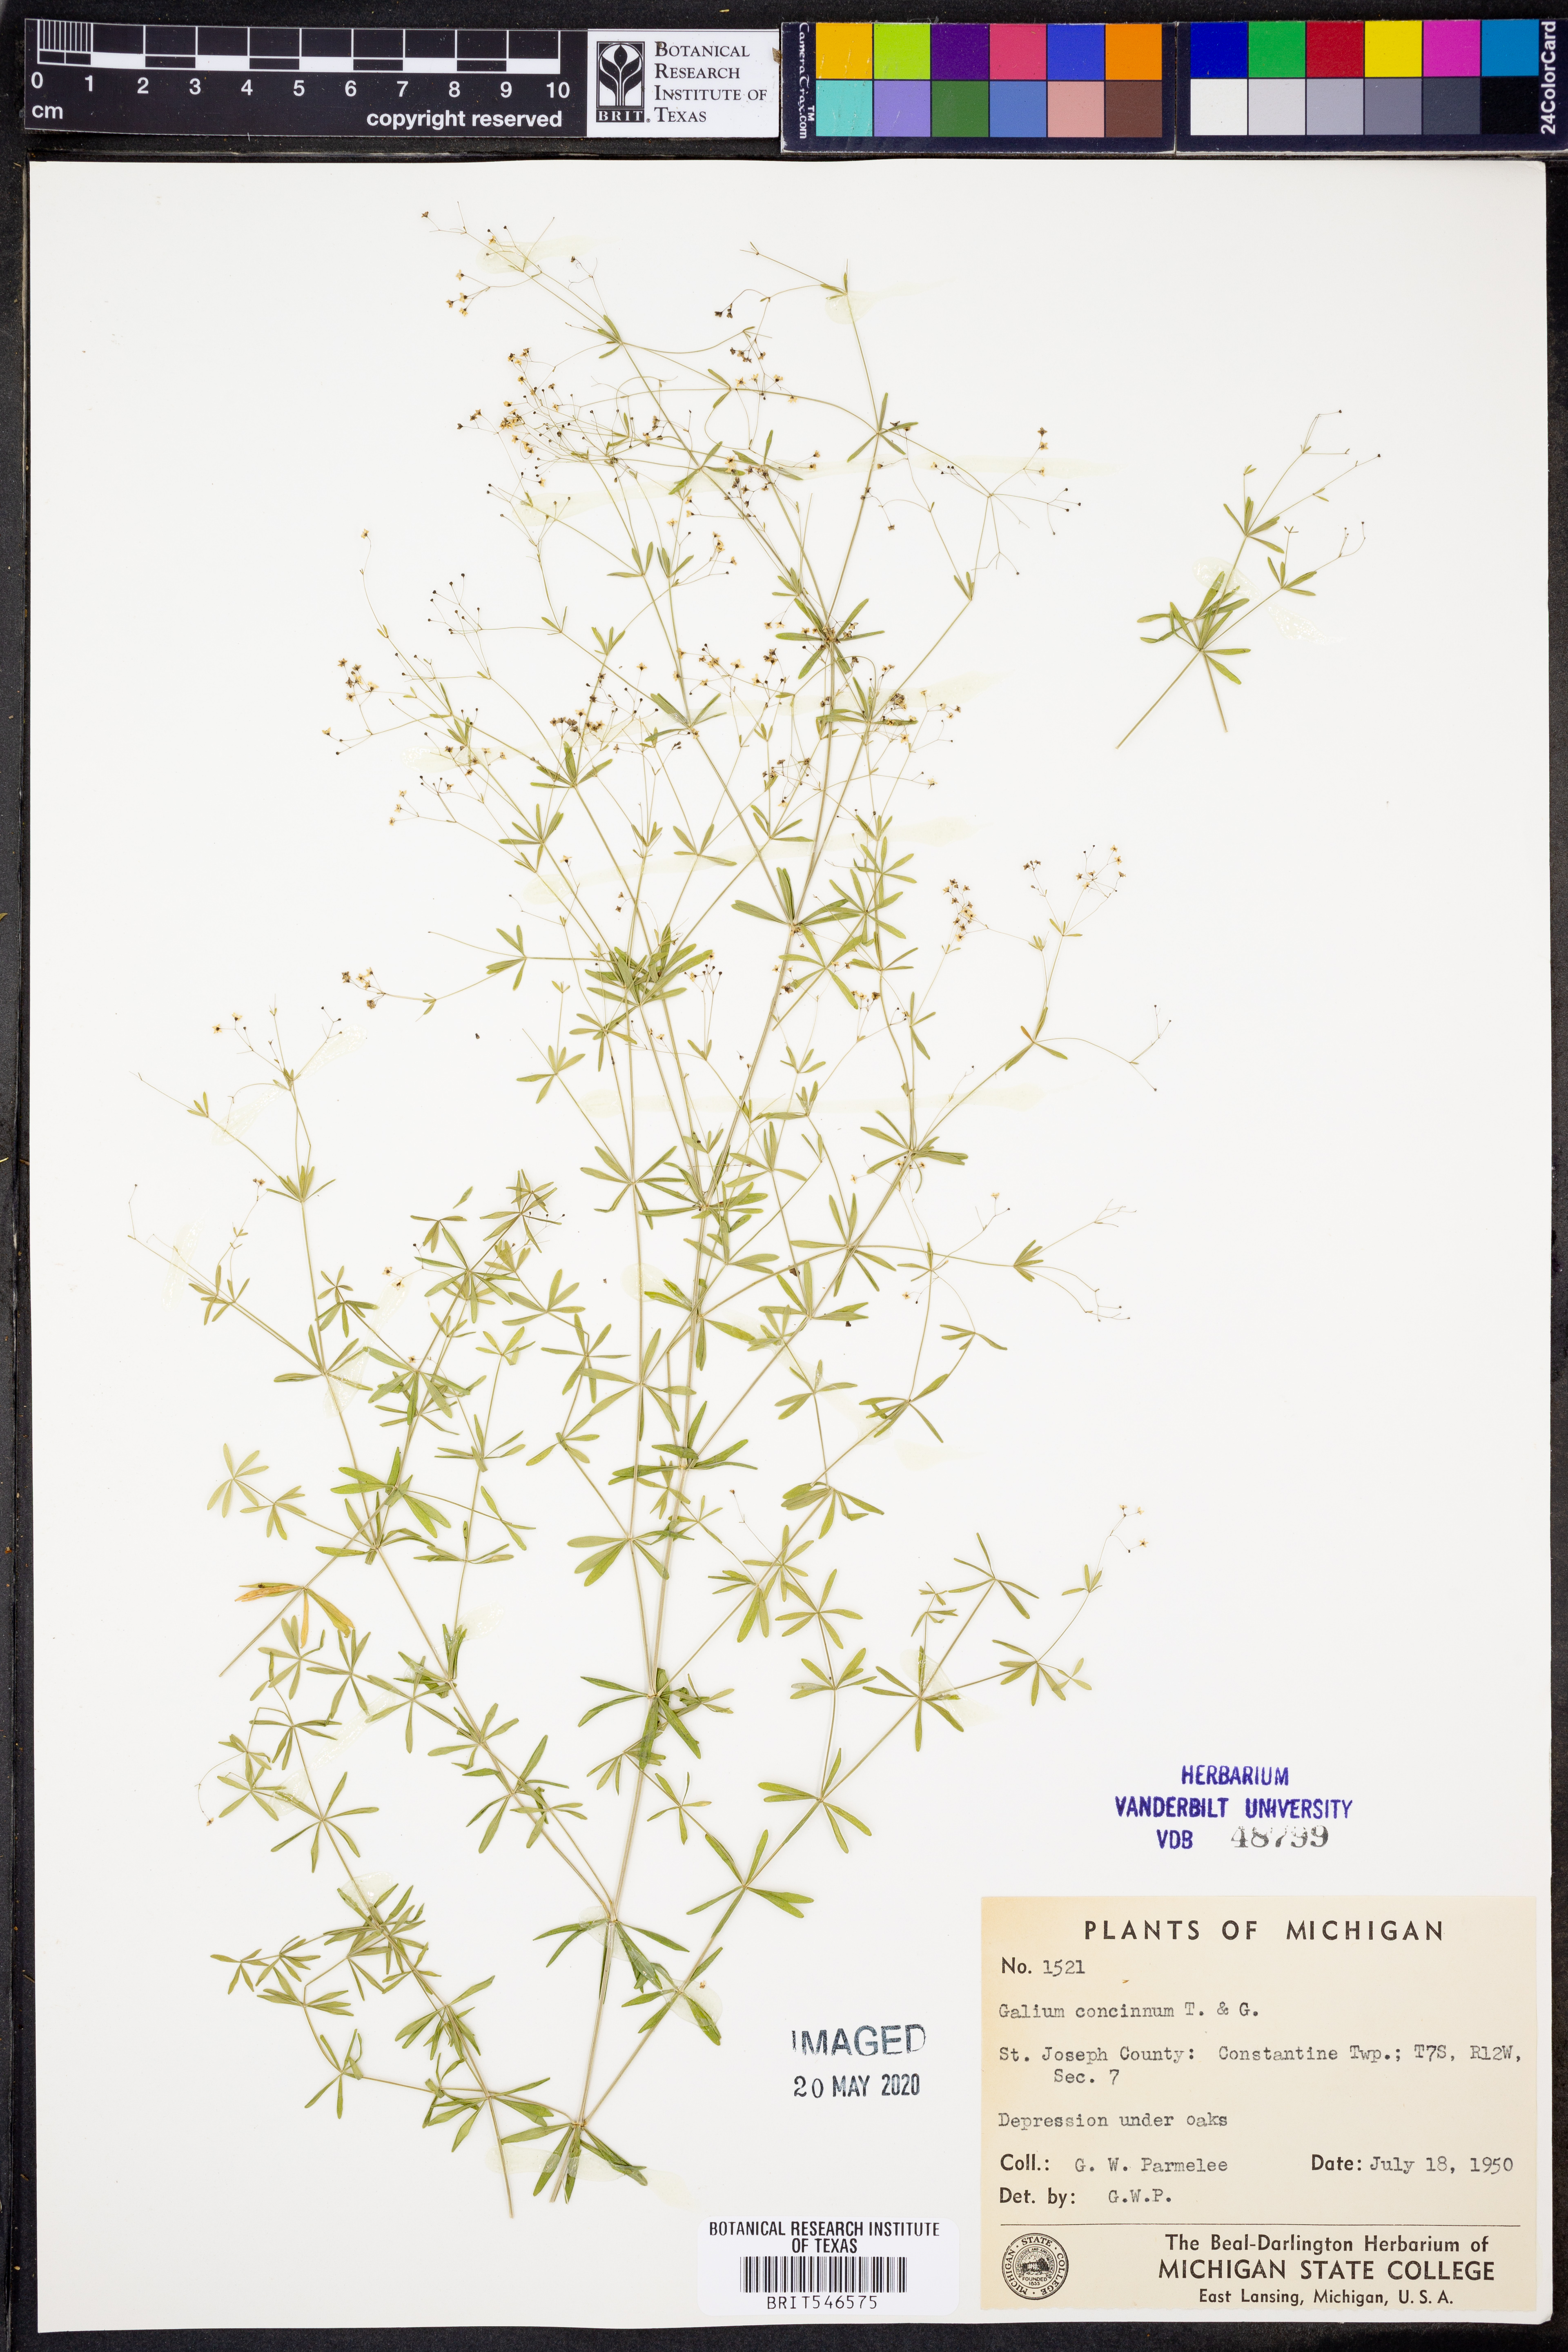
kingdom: Plantae
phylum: Tracheophyta
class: Magnoliopsida
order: Gentianales
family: Rubiaceae
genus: Galium
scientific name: Galium concinnum
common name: Shining bedstraw
